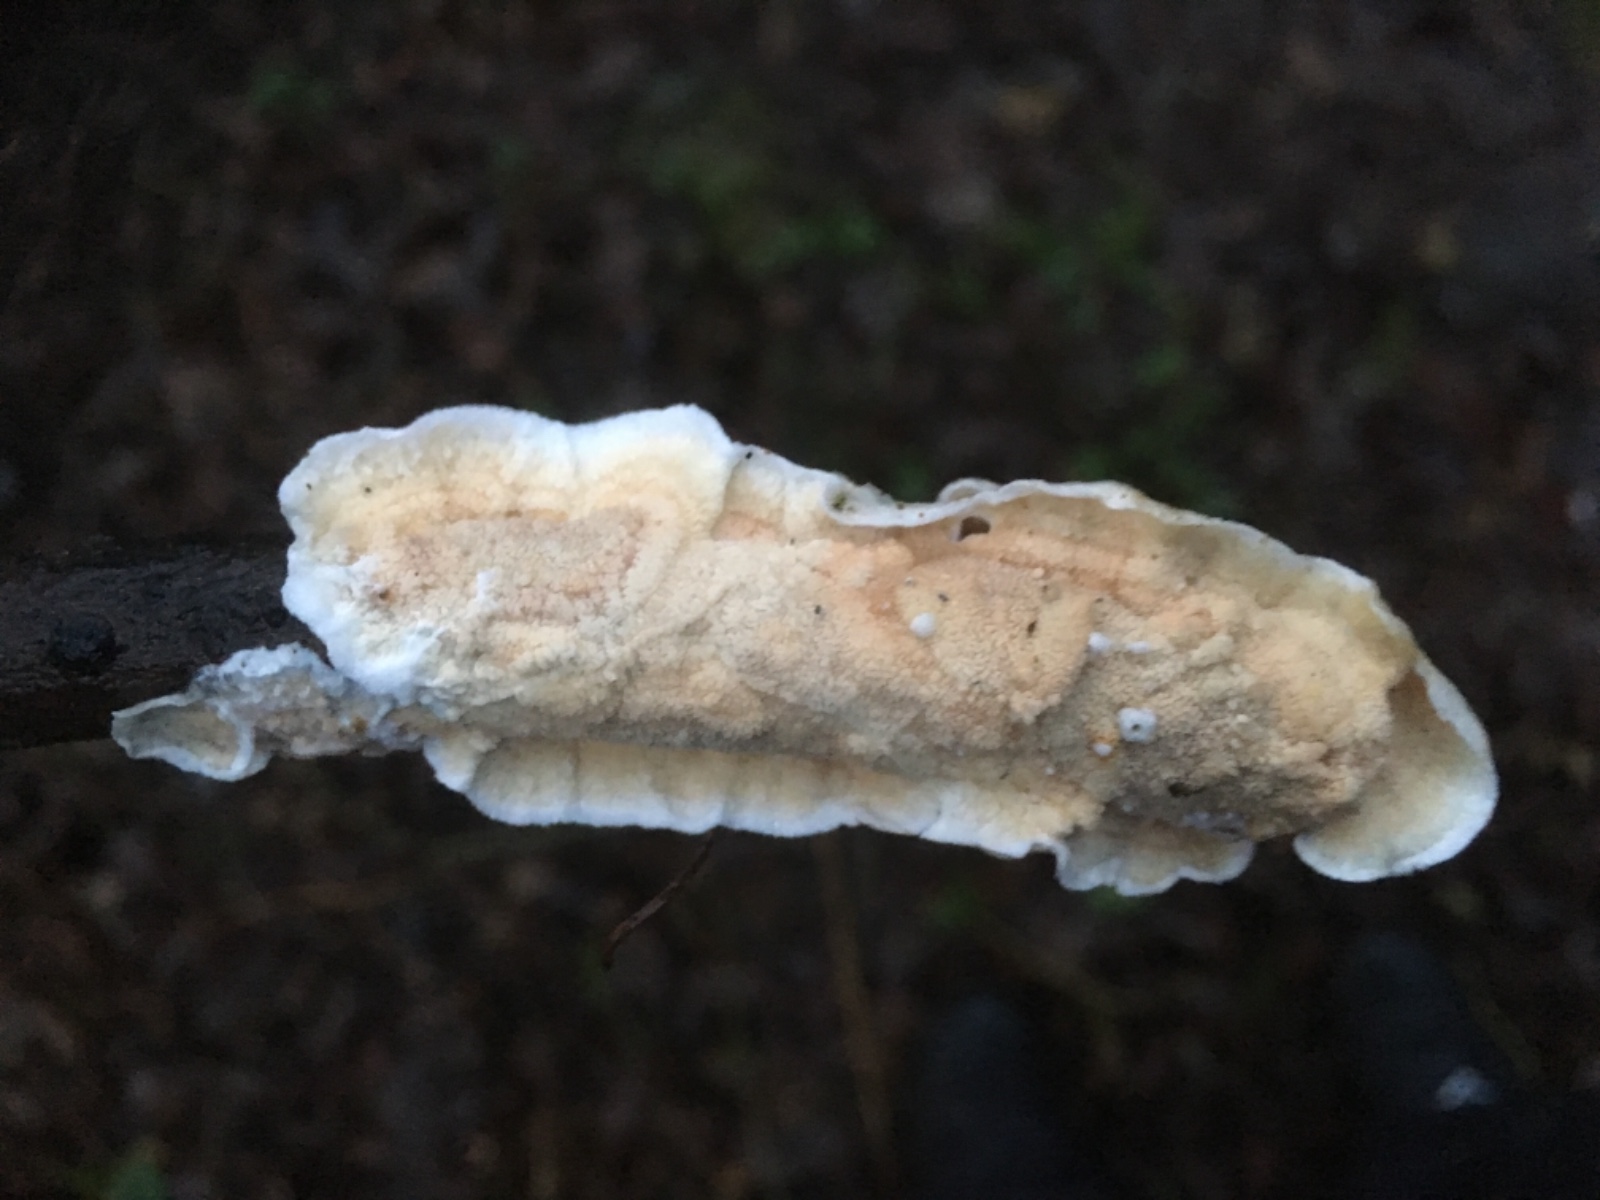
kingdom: Fungi
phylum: Basidiomycota
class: Agaricomycetes
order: Polyporales
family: Irpicaceae
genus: Byssomerulius
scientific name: Byssomerulius corium
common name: læder-åresvamp
